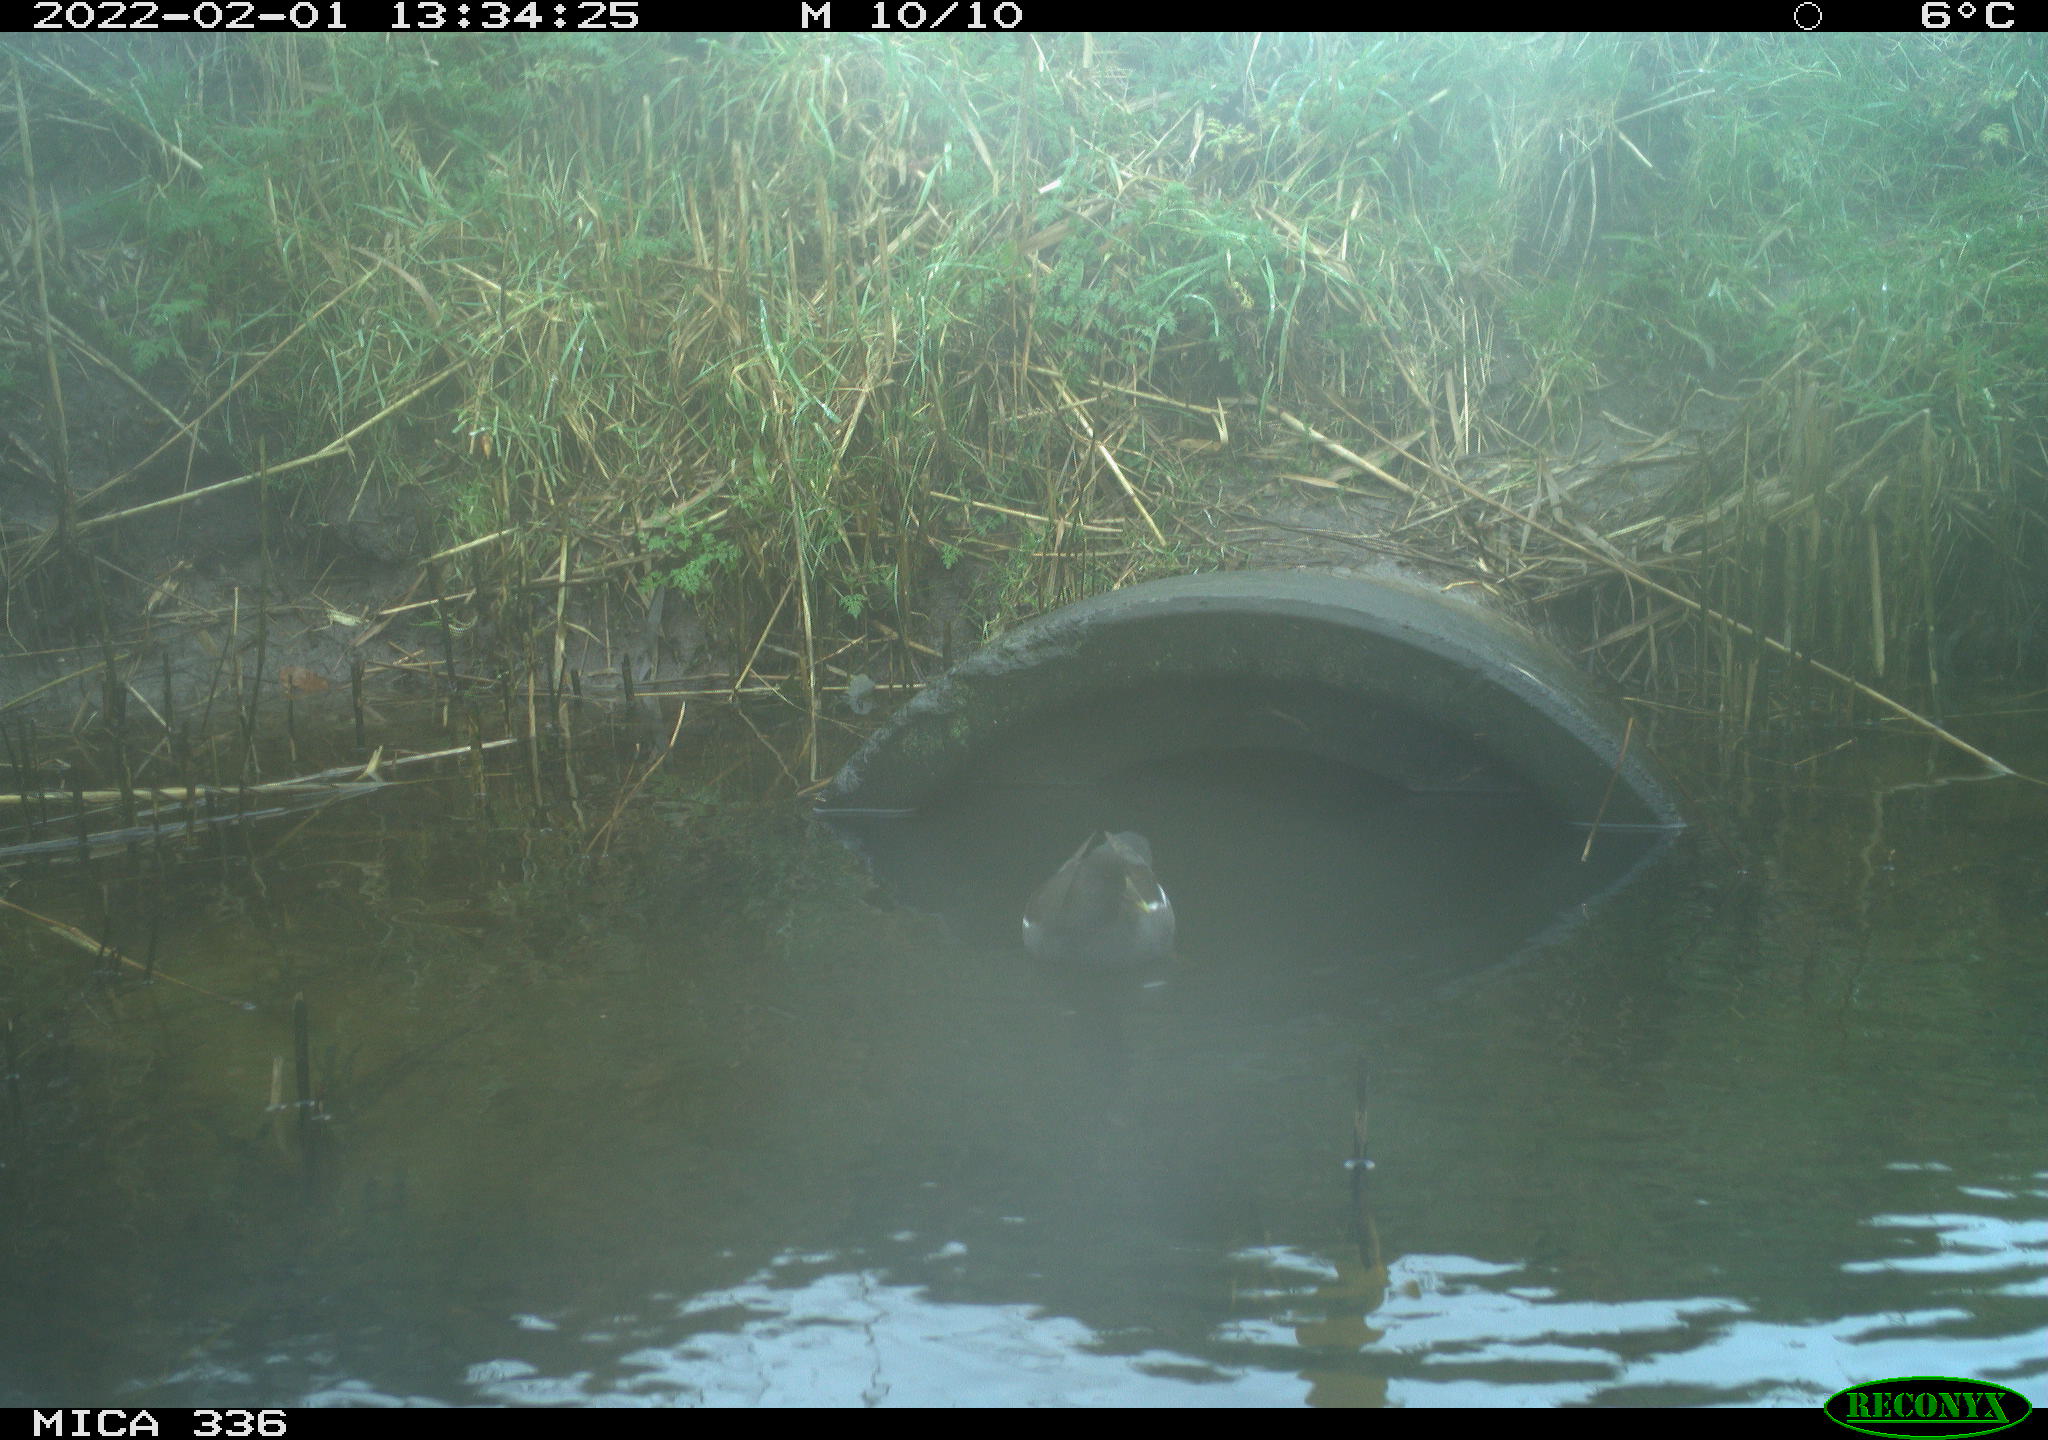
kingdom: Animalia
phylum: Chordata
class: Aves
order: Gruiformes
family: Rallidae
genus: Gallinula
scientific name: Gallinula chloropus
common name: Common moorhen
